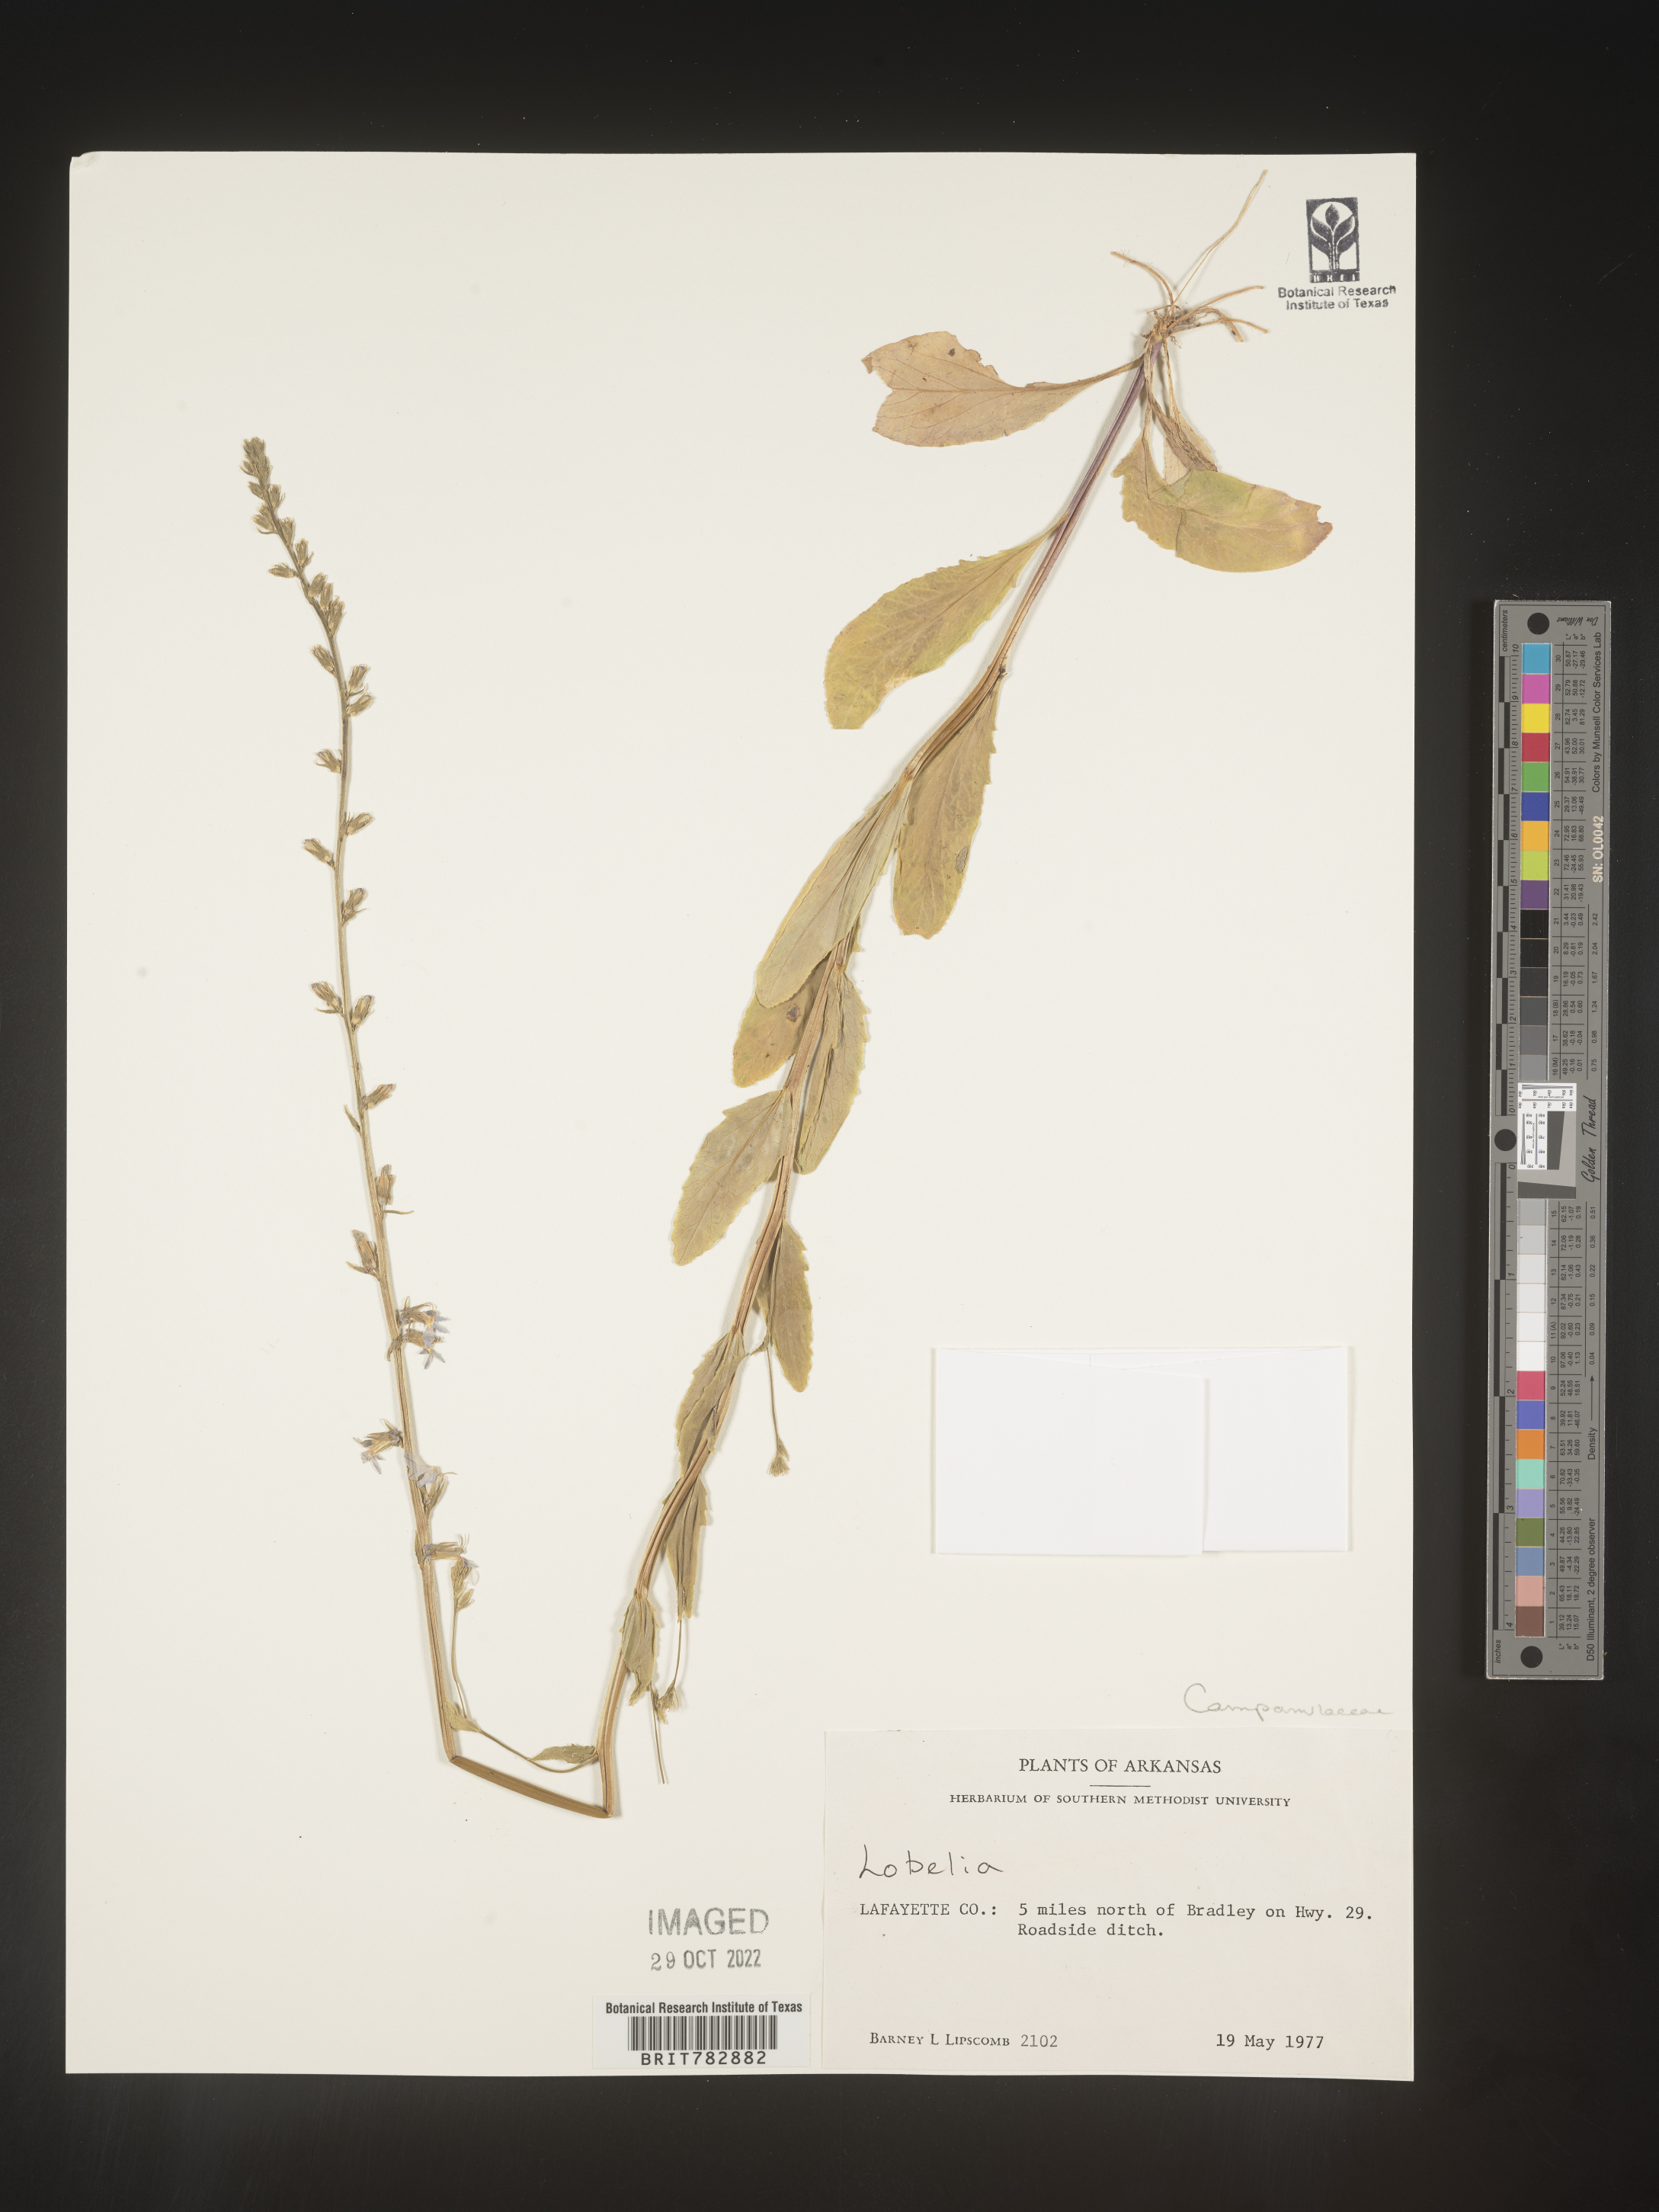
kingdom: Plantae
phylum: Tracheophyta
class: Magnoliopsida
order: Asterales
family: Campanulaceae
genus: Lobelia
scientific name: Lobelia
